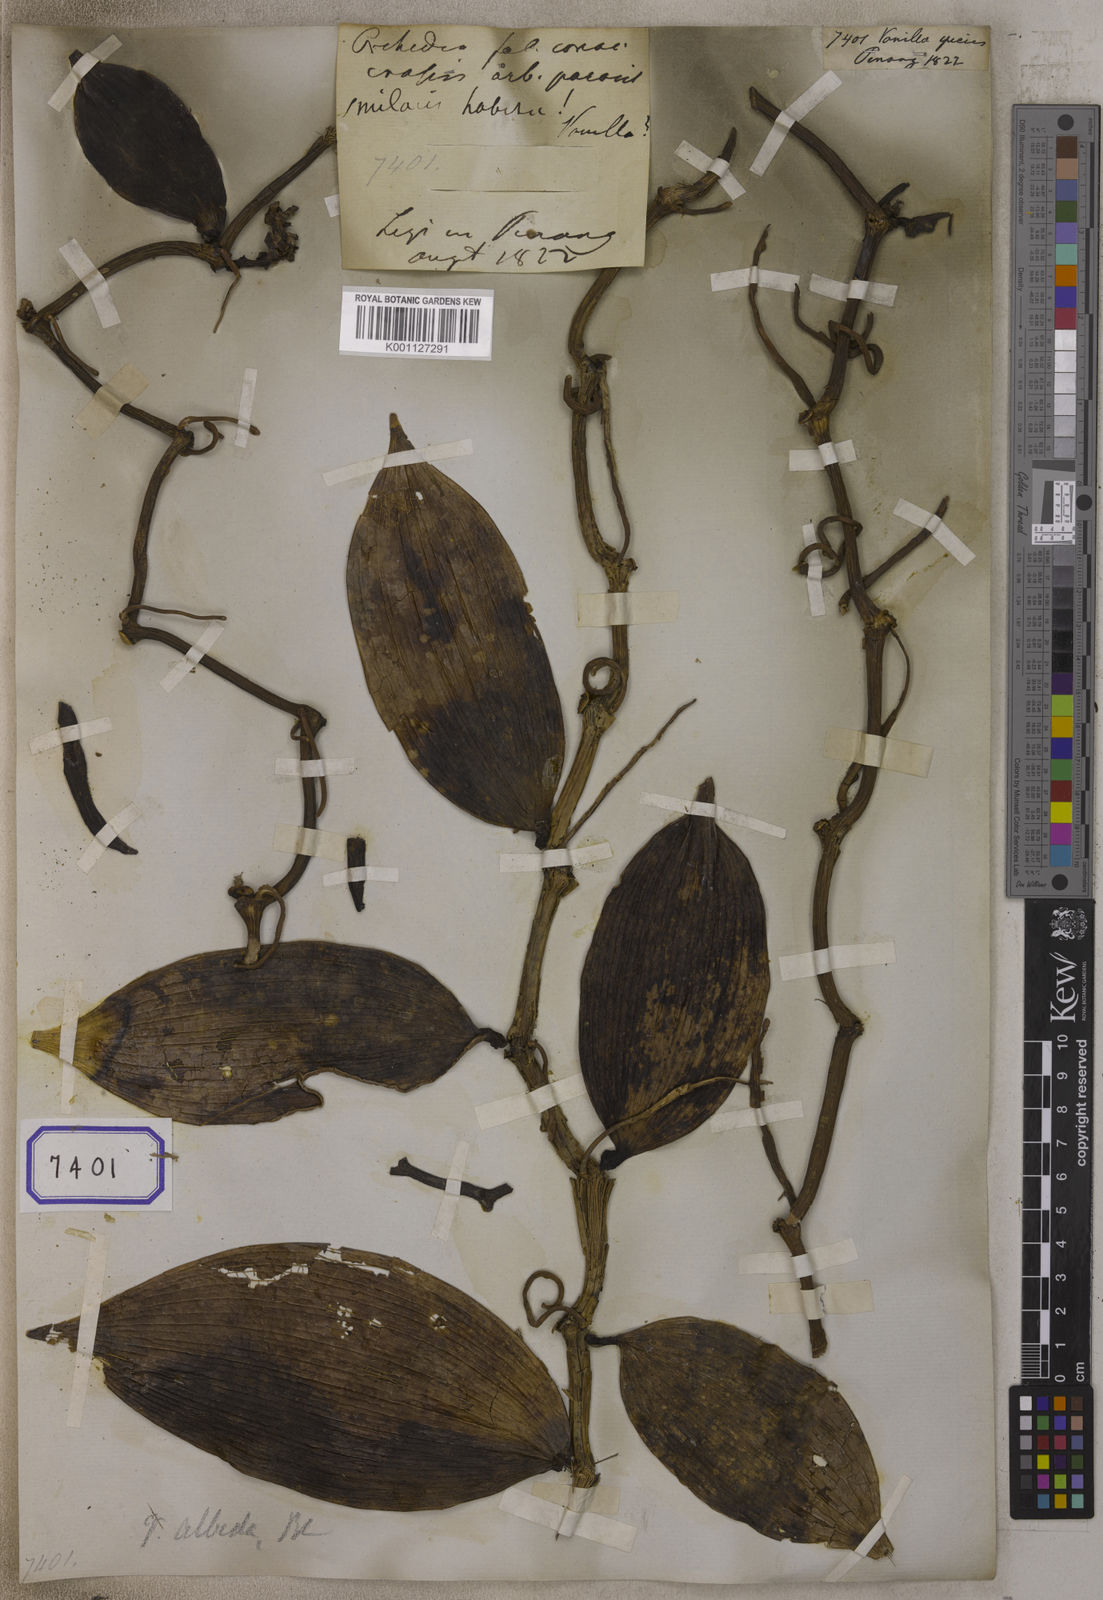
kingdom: Plantae
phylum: Tracheophyta
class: Liliopsida
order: Asparagales
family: Orchidaceae
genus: Vanilla
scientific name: Vanilla
